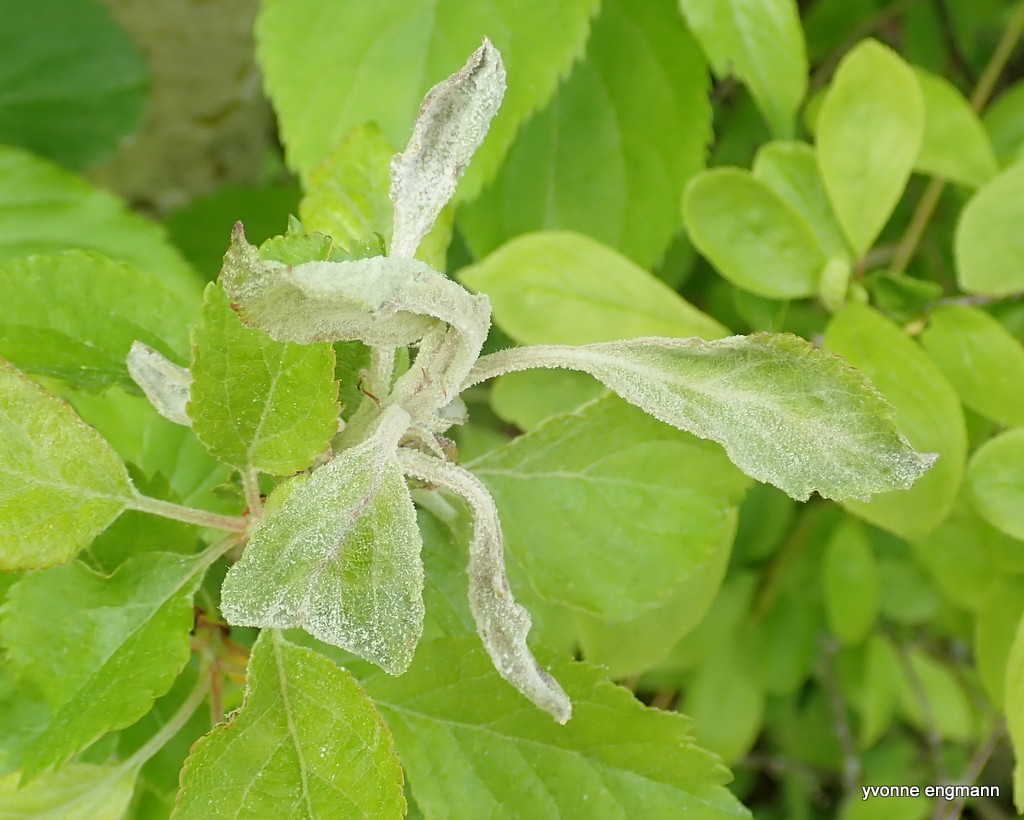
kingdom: Fungi
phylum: Ascomycota
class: Leotiomycetes
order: Helotiales
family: Erysiphaceae
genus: Podosphaera
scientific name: Podosphaera leucotricha
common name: æble-meldug
